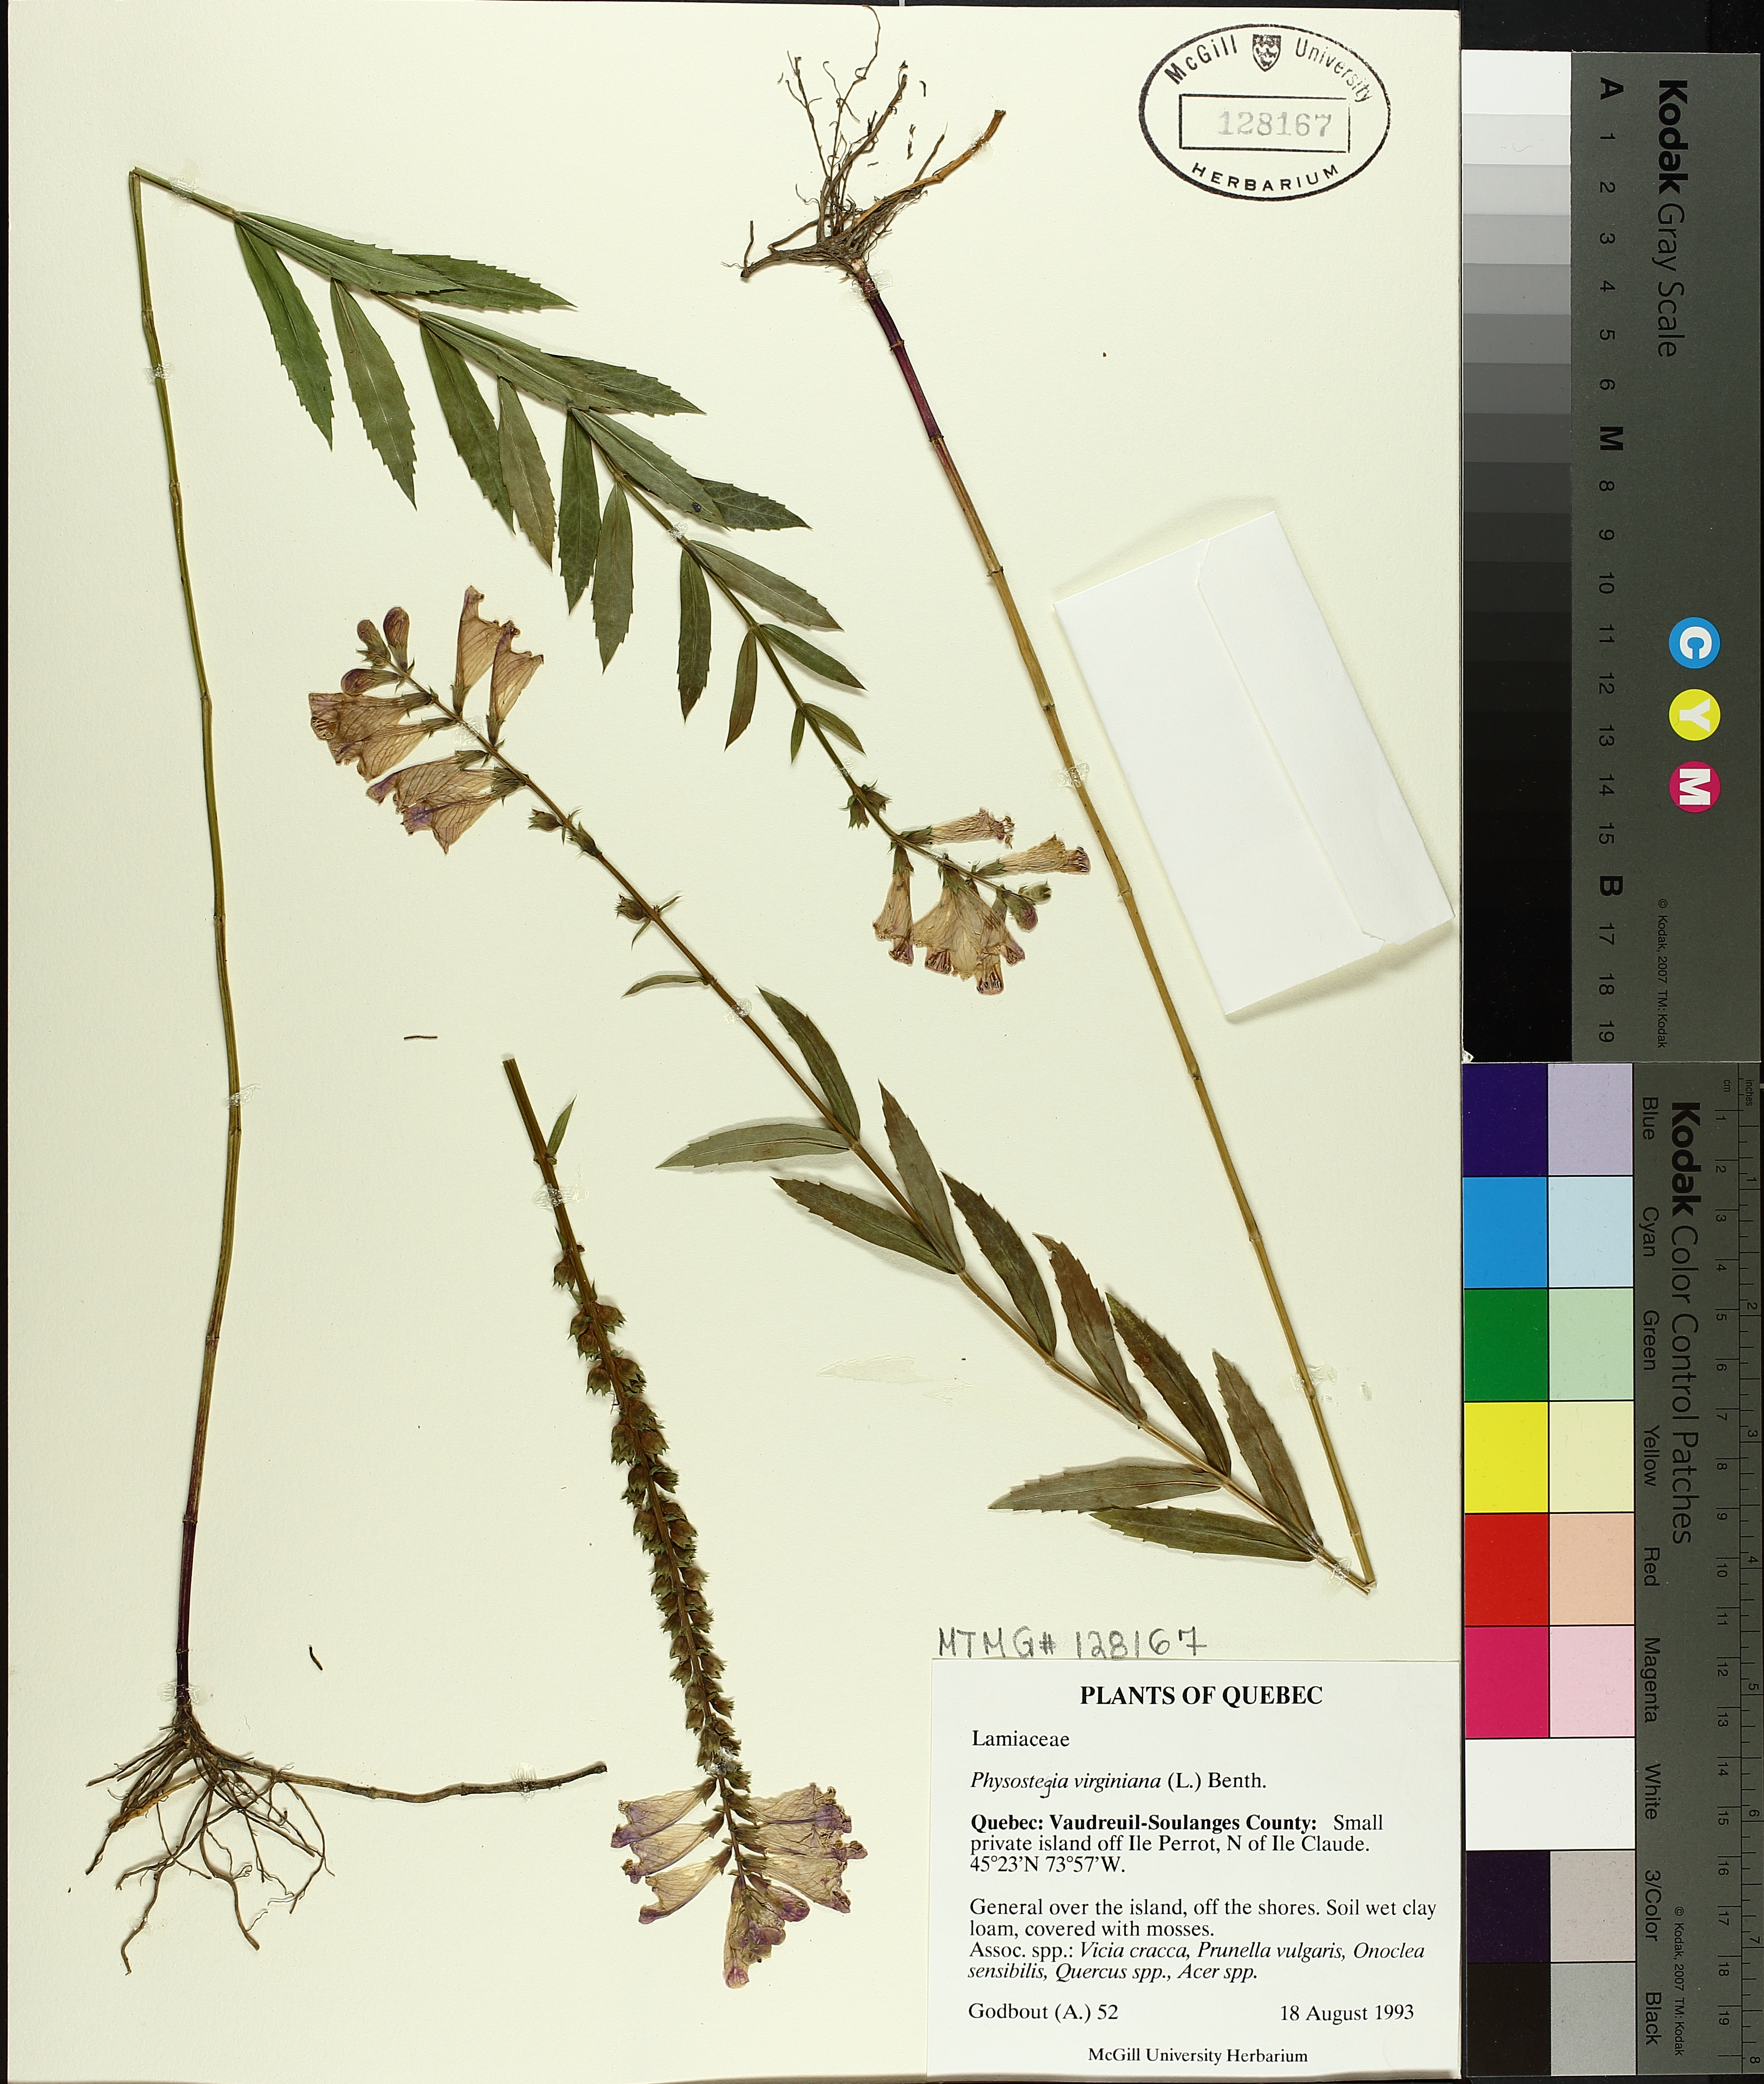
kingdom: Plantae
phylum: Tracheophyta
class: Magnoliopsida
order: Lamiales
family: Lamiaceae
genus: Physostegia
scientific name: Physostegia virginiana
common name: Obedient-plant
